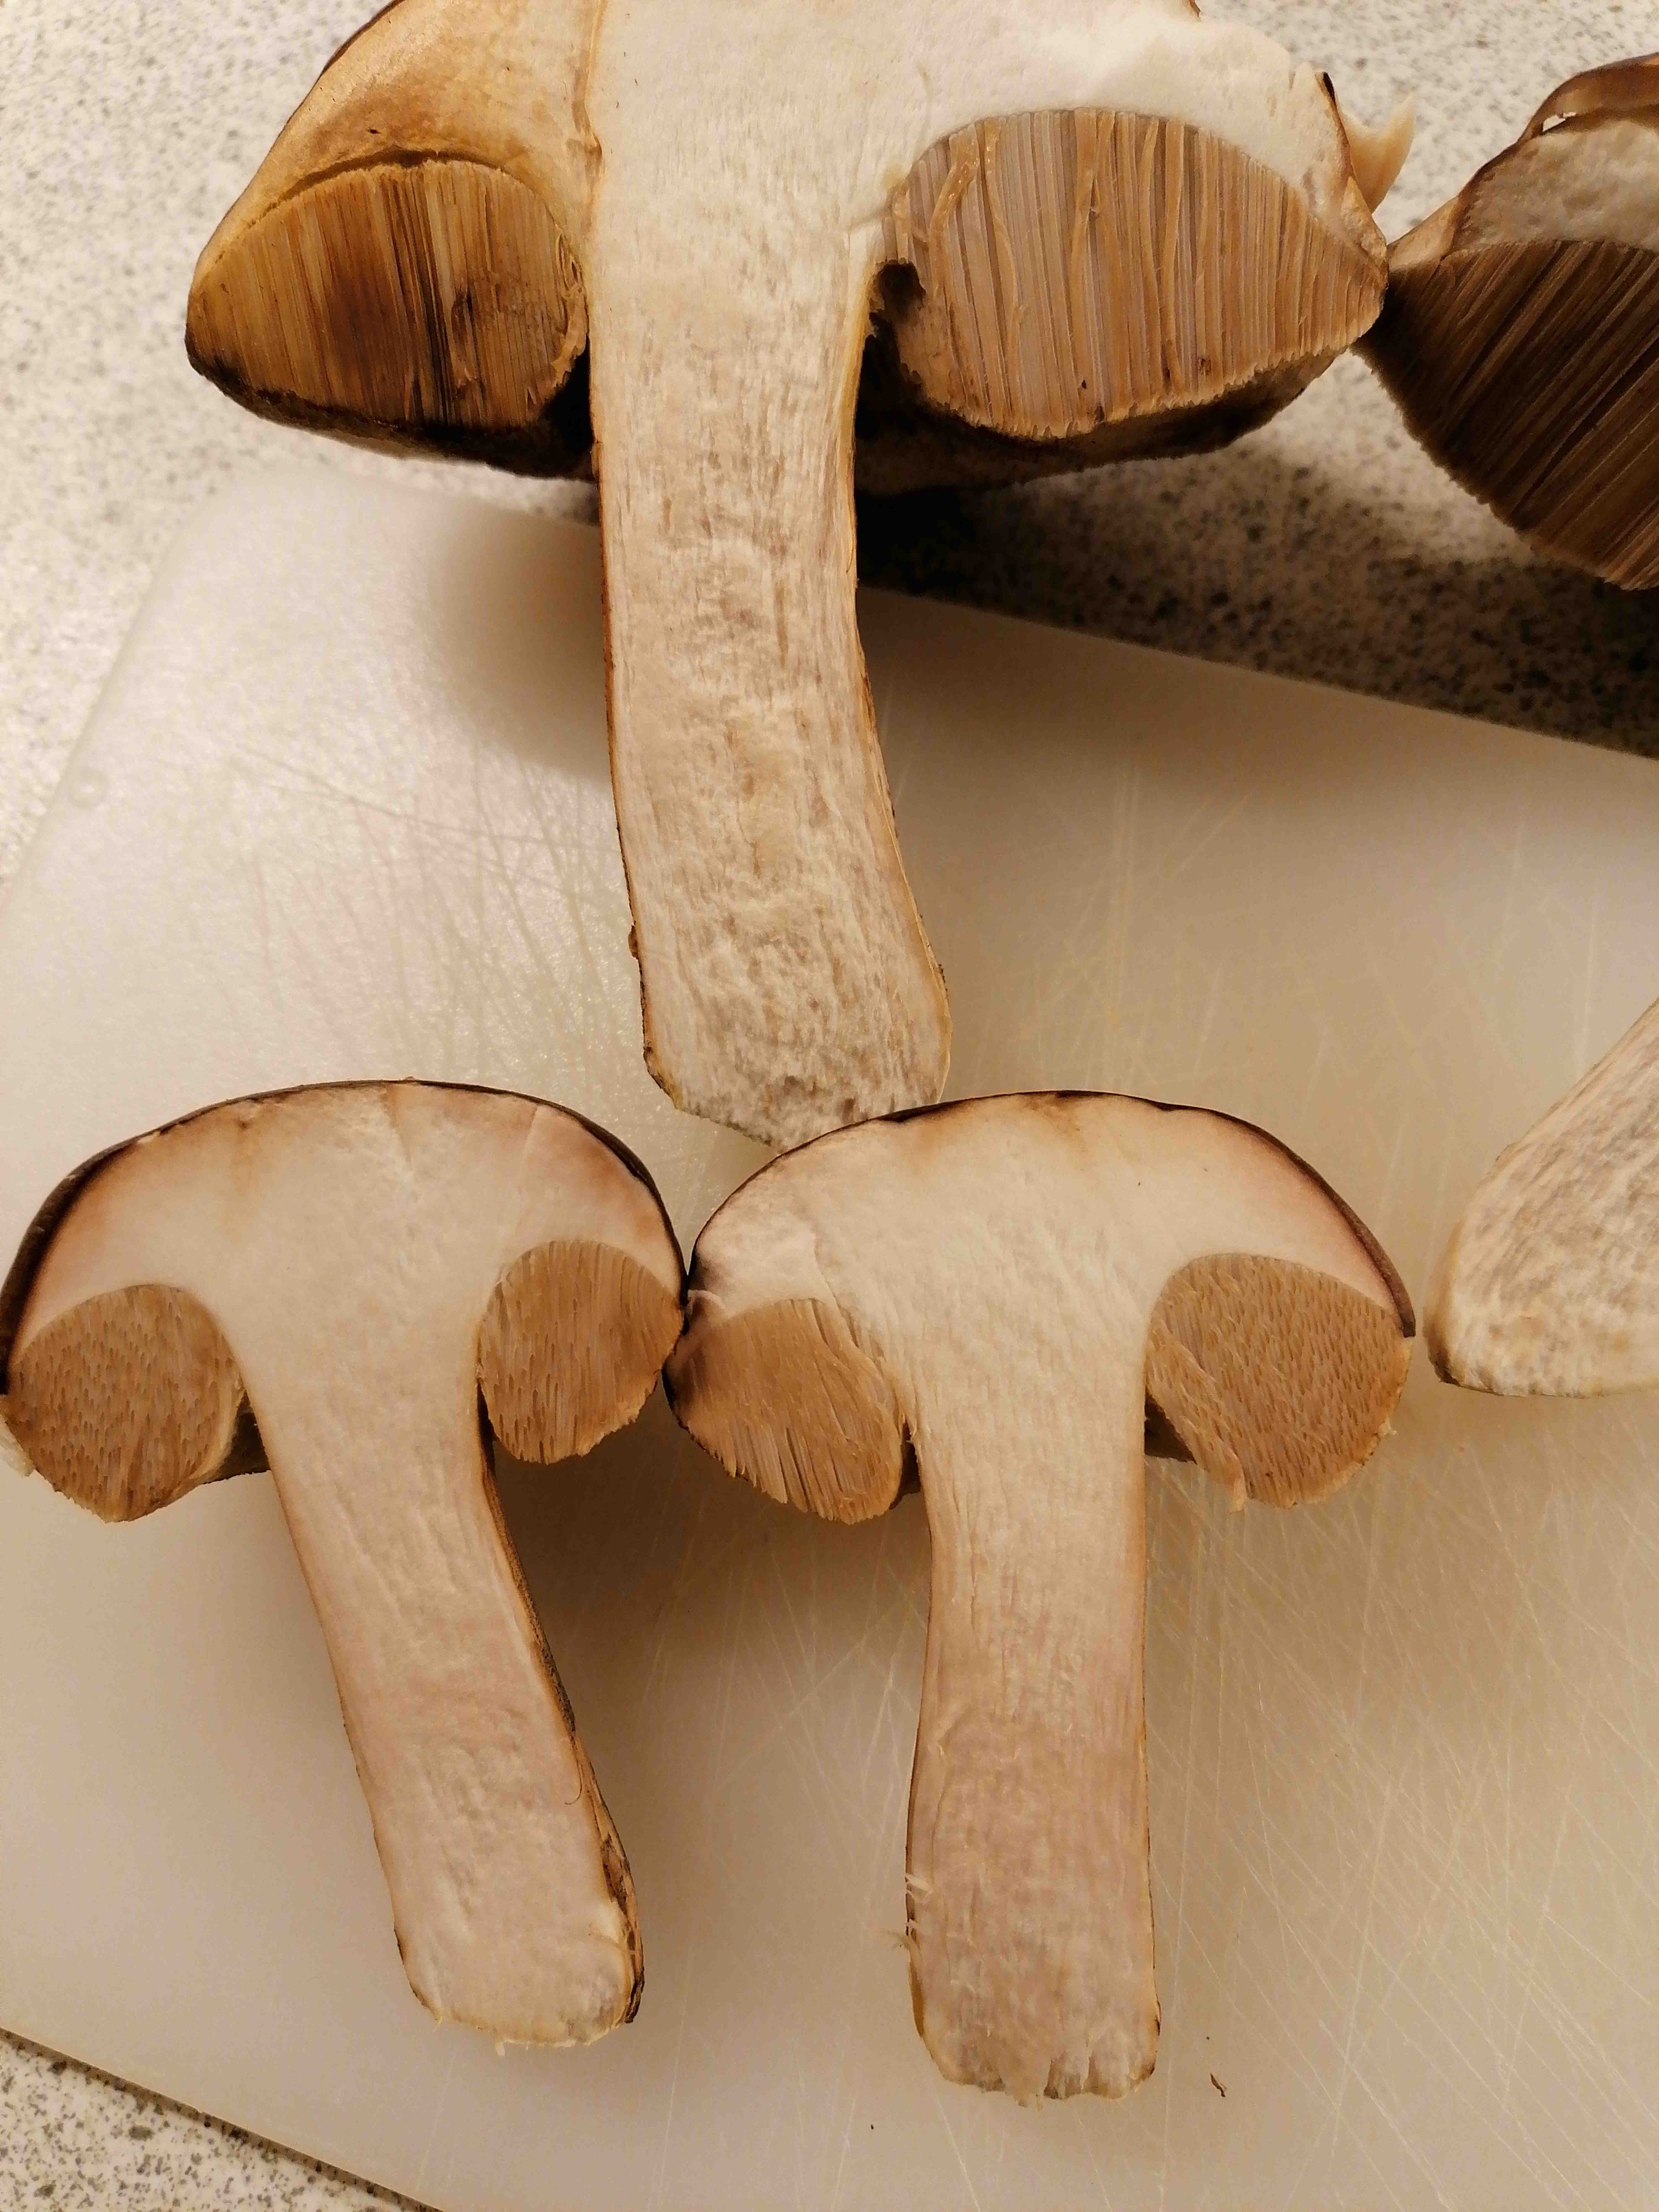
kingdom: Fungi
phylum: Basidiomycota
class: Agaricomycetes
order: Boletales
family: Boletaceae
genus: Leccinum
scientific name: Leccinum scabrum
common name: brun skælrørhat
